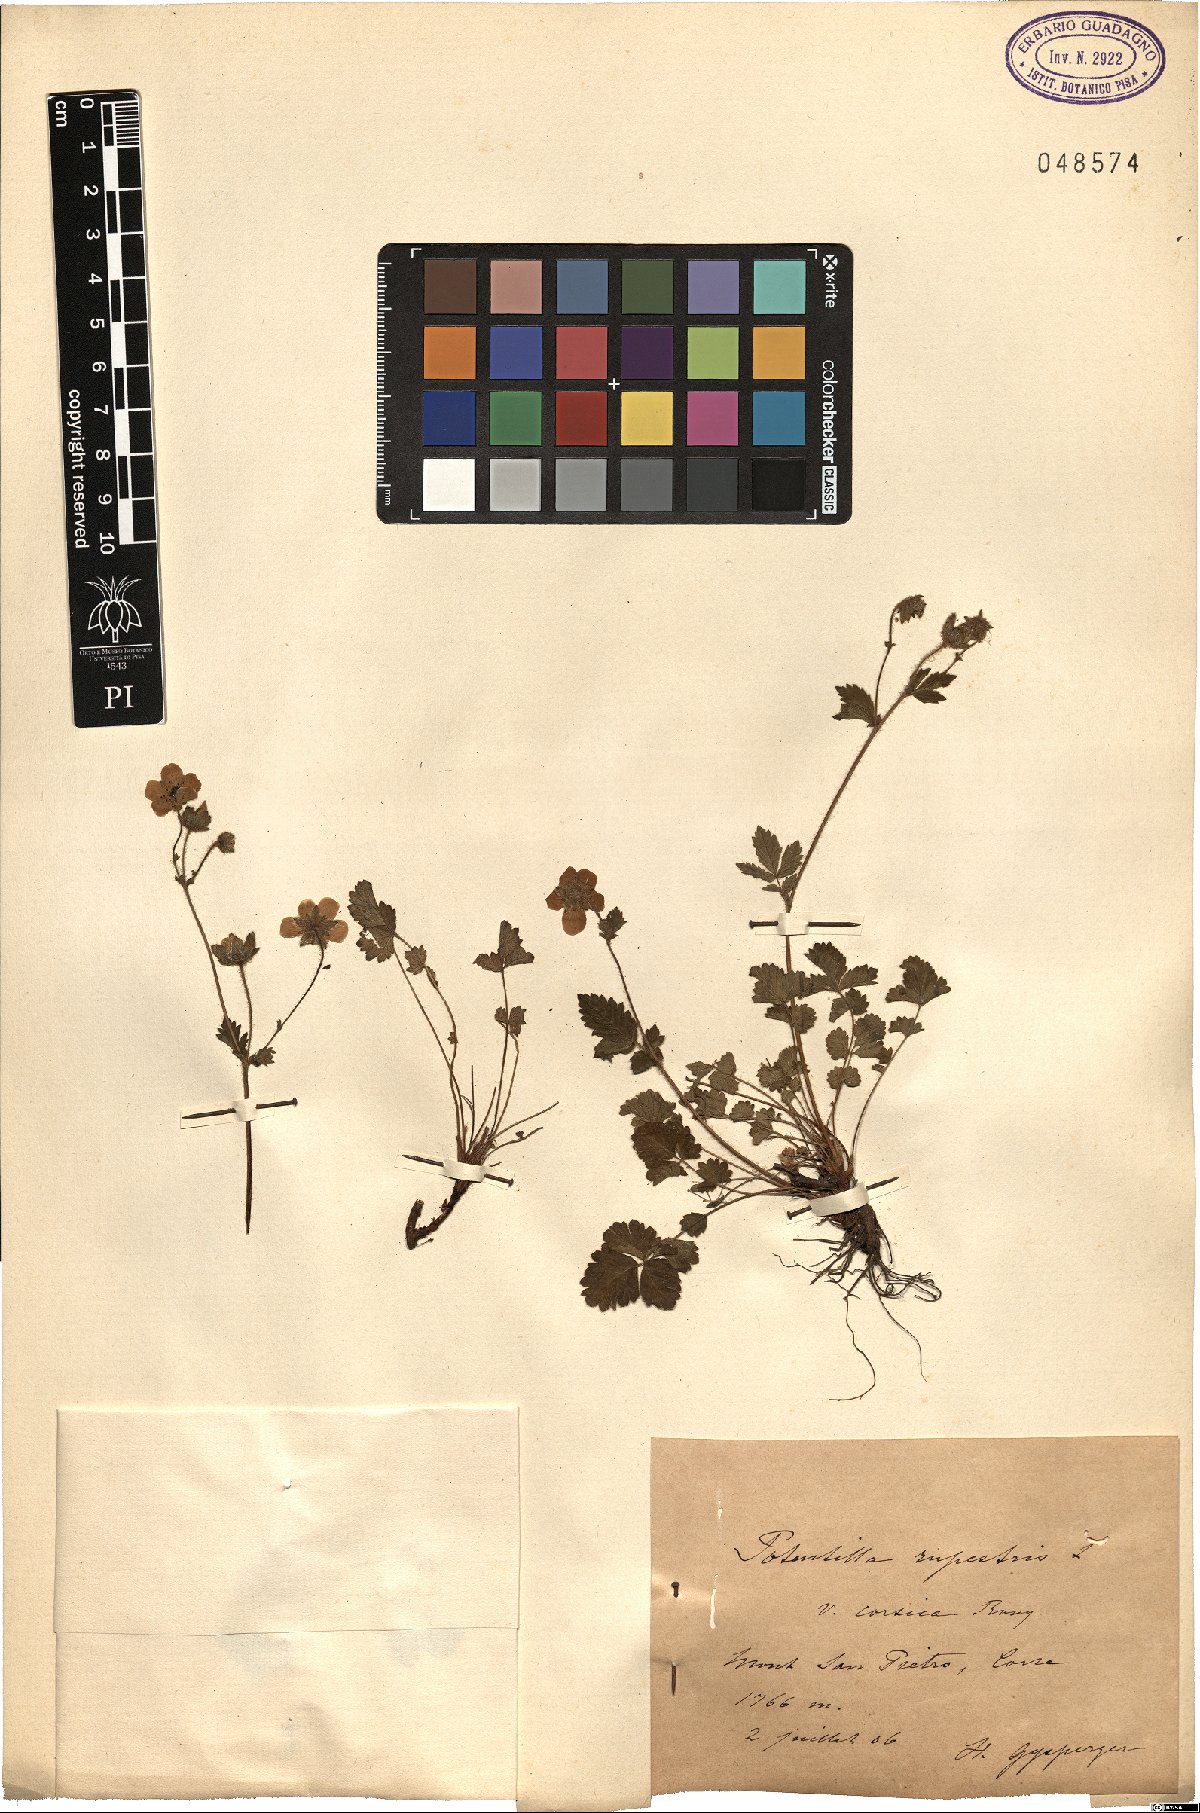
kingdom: Plantae
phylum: Tracheophyta
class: Magnoliopsida
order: Rosales
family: Rosaceae
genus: Drymocallis
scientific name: Drymocallis corsica
